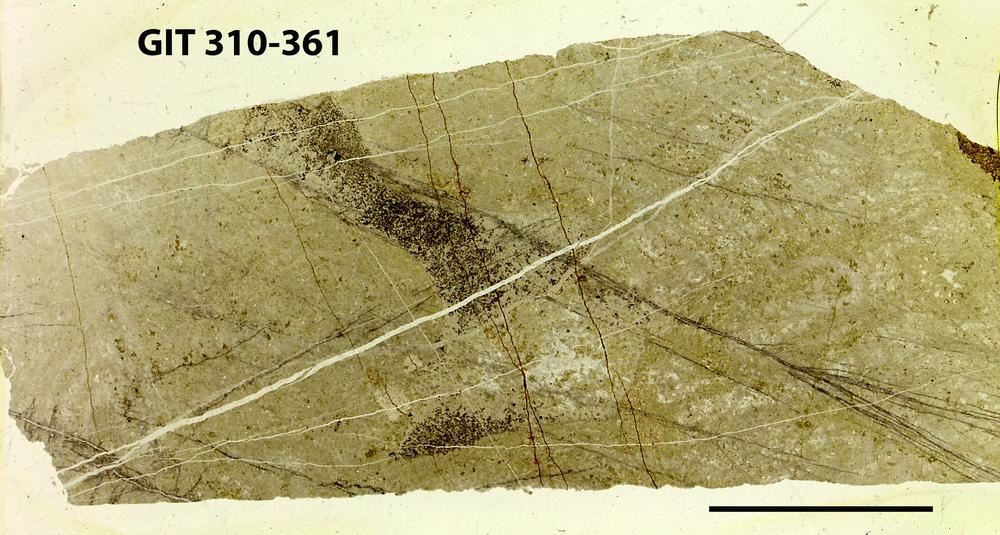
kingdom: Animalia
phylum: Porifera
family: Labechiidae
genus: Labechia
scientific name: Labechia
